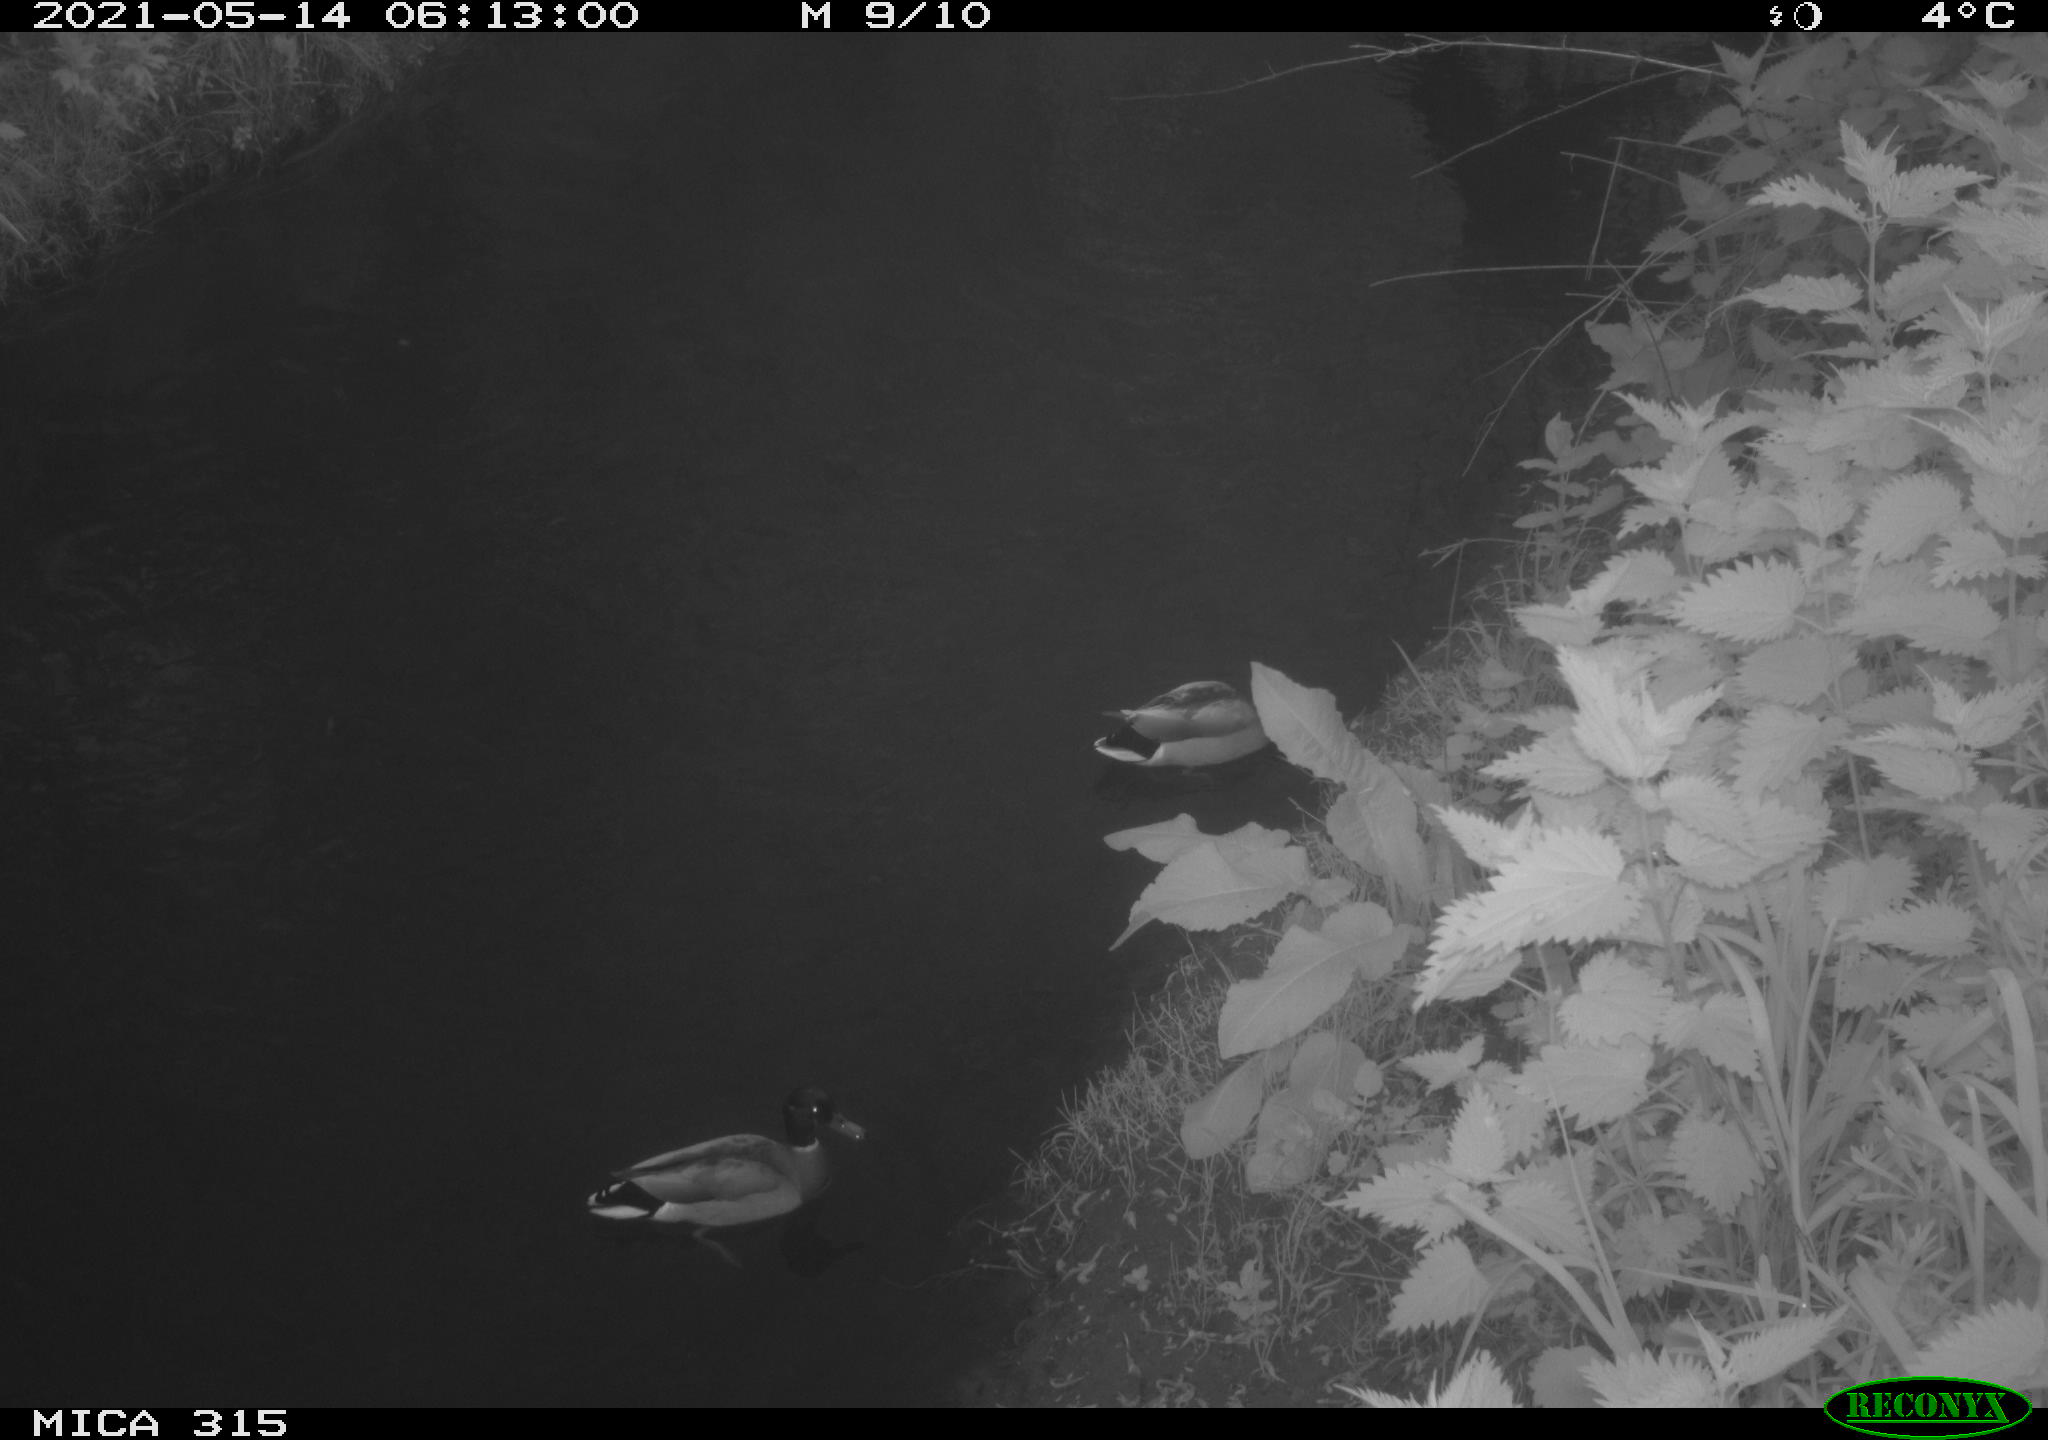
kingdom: Animalia
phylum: Chordata
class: Aves
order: Anseriformes
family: Anatidae
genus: Anas
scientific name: Anas
